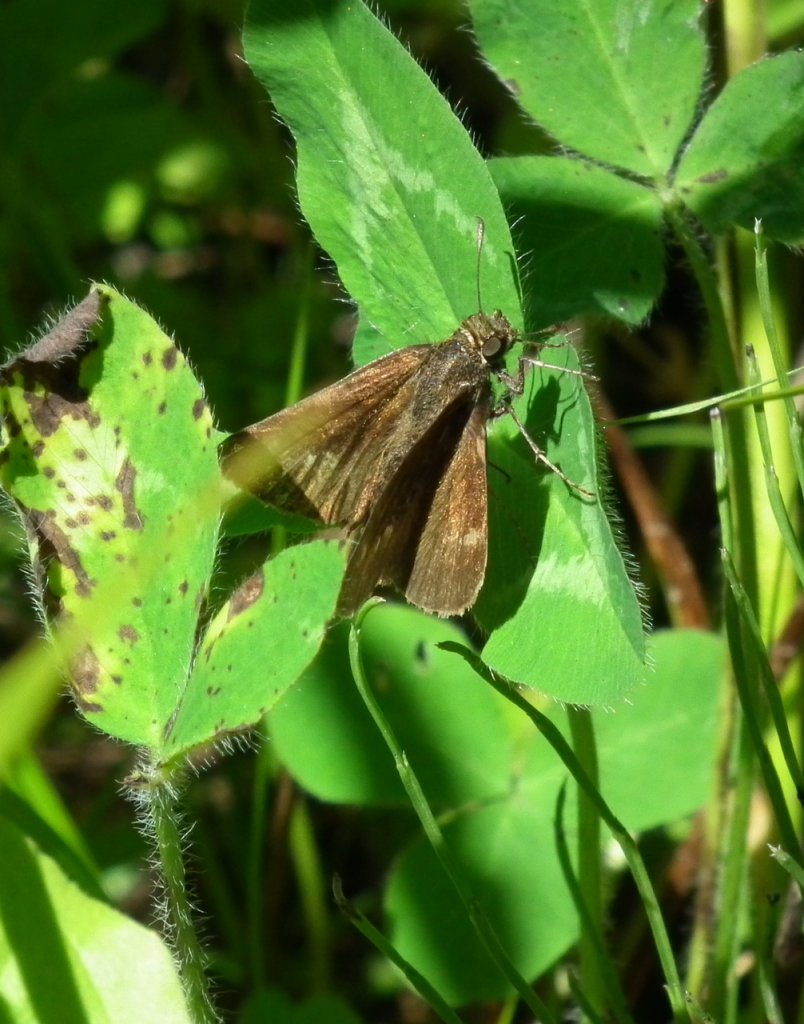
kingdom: Animalia
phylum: Arthropoda
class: Insecta
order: Lepidoptera
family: Hesperiidae
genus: Euphyes
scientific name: Euphyes vestris
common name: Dun Skipper
